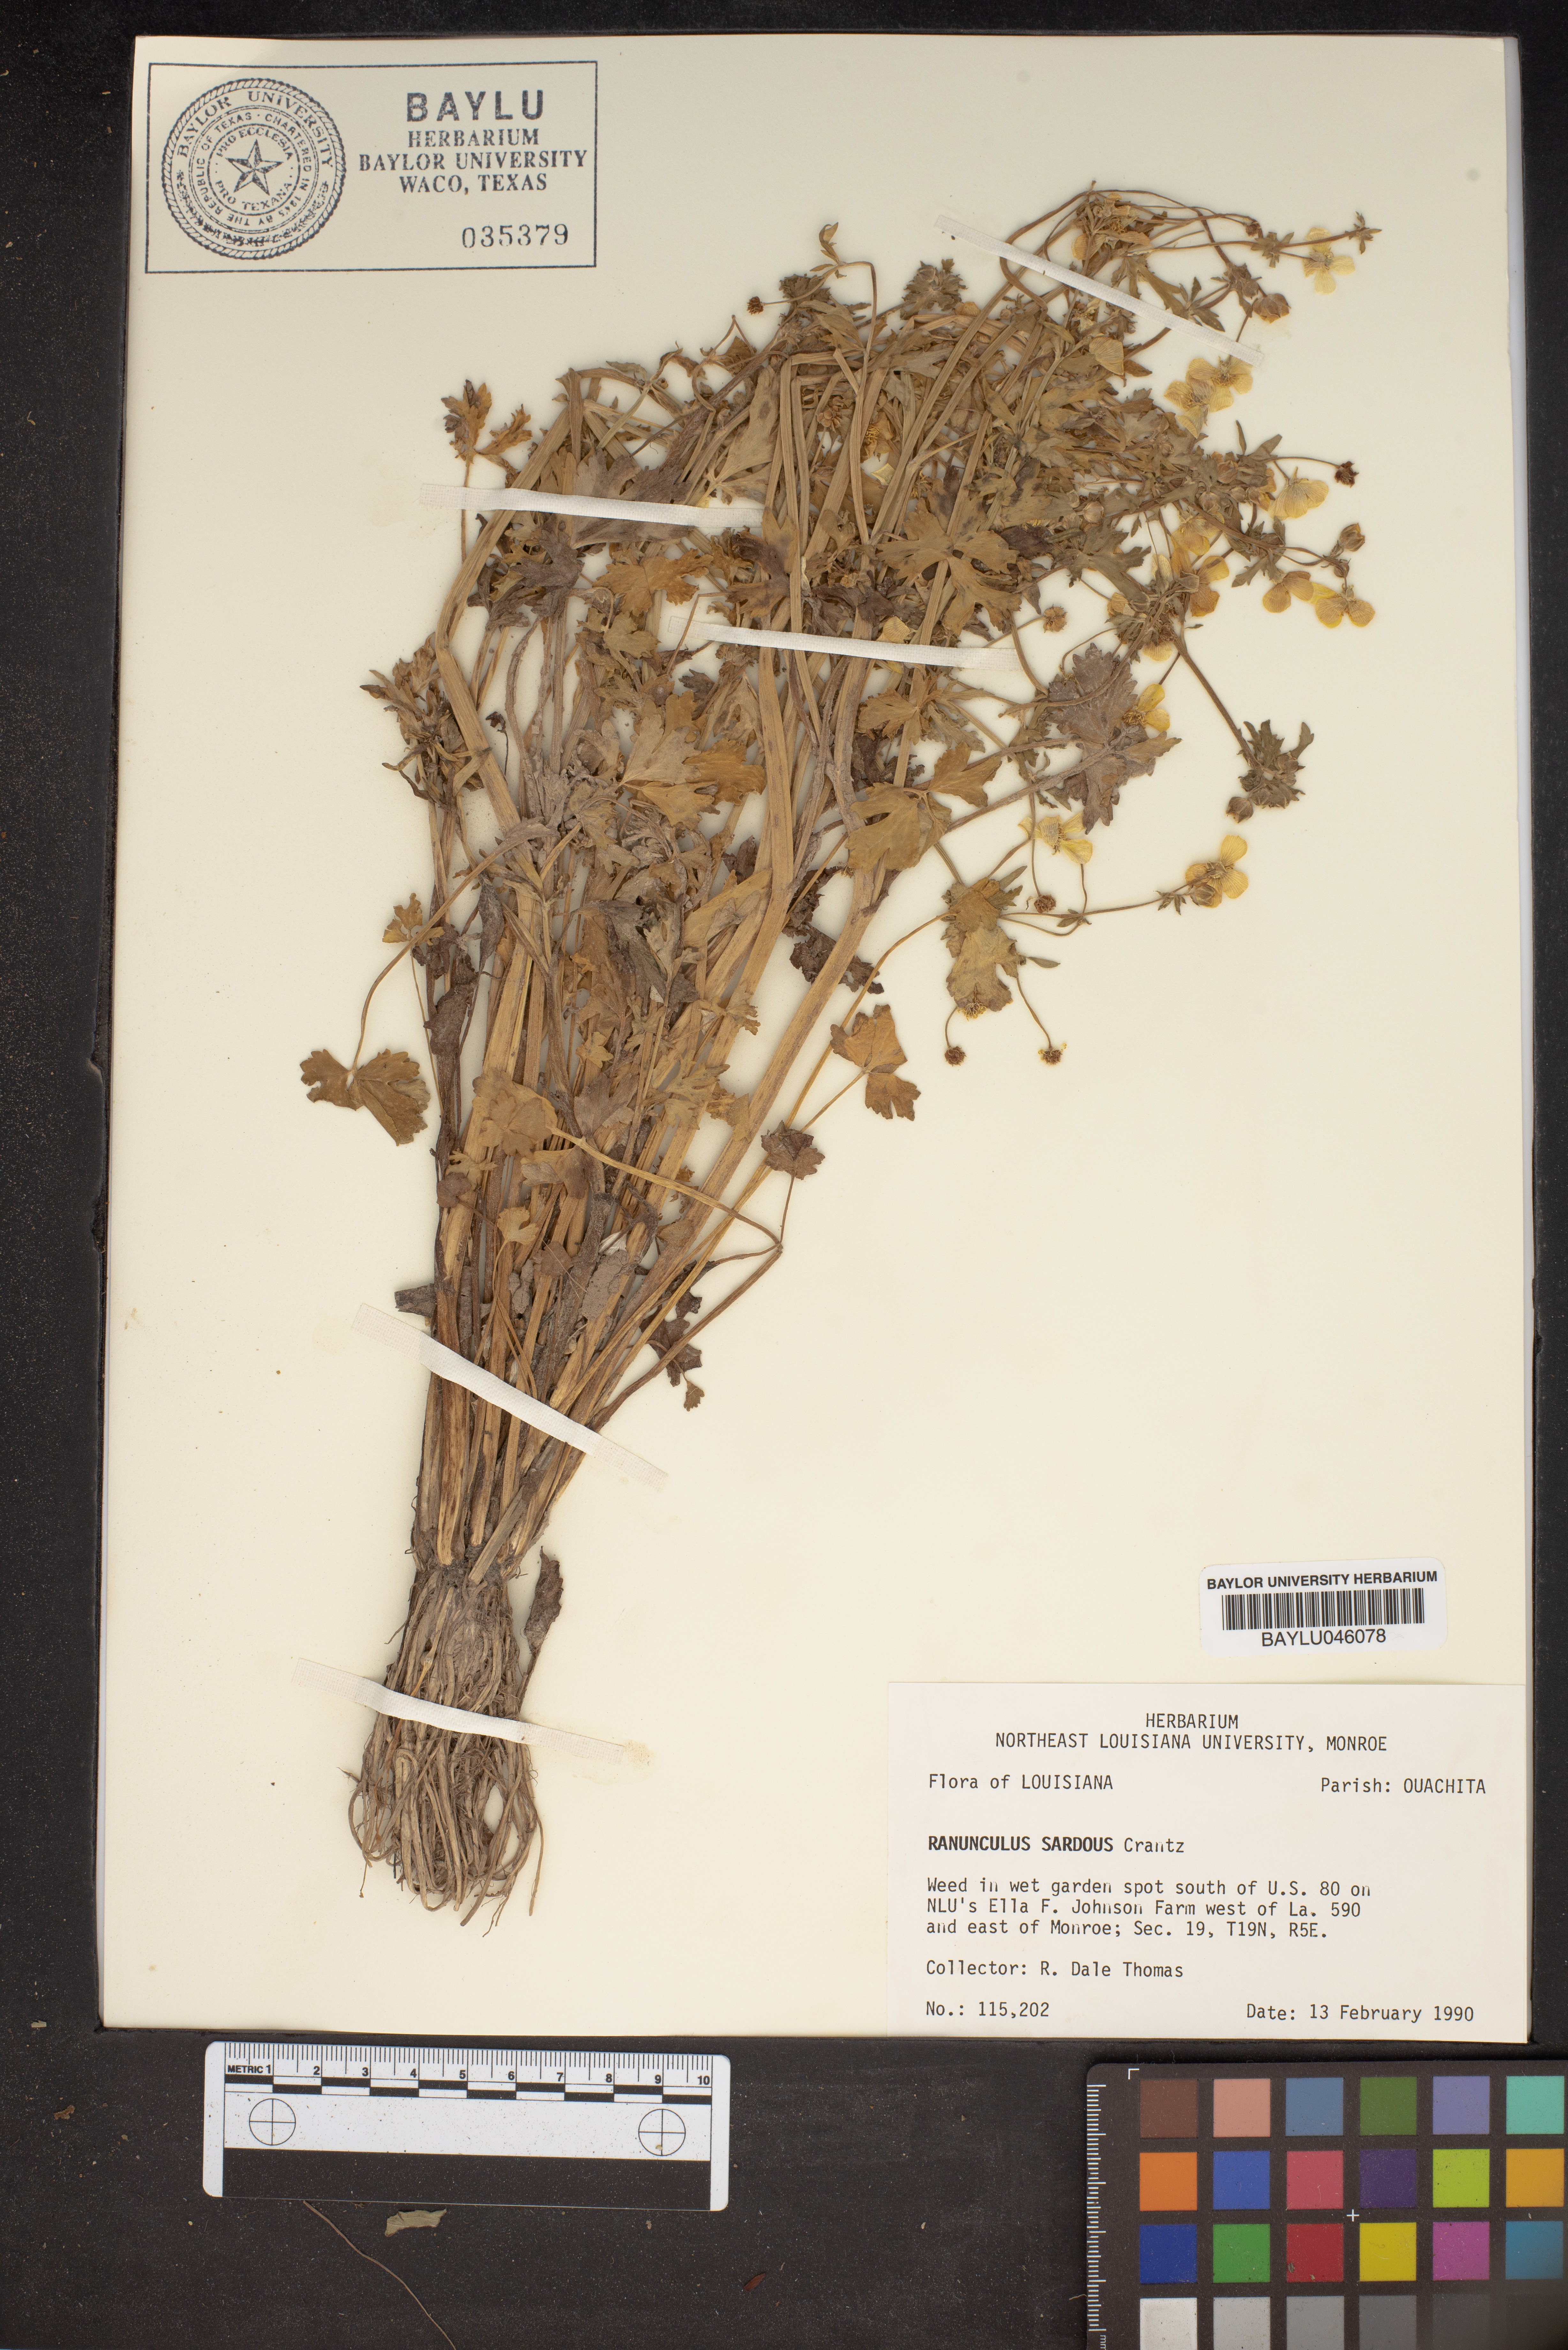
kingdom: Plantae
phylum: Tracheophyta
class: Magnoliopsida
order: Ranunculales
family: Ranunculaceae
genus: Ranunculus
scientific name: Ranunculus sardous
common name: Hairy buttercup
